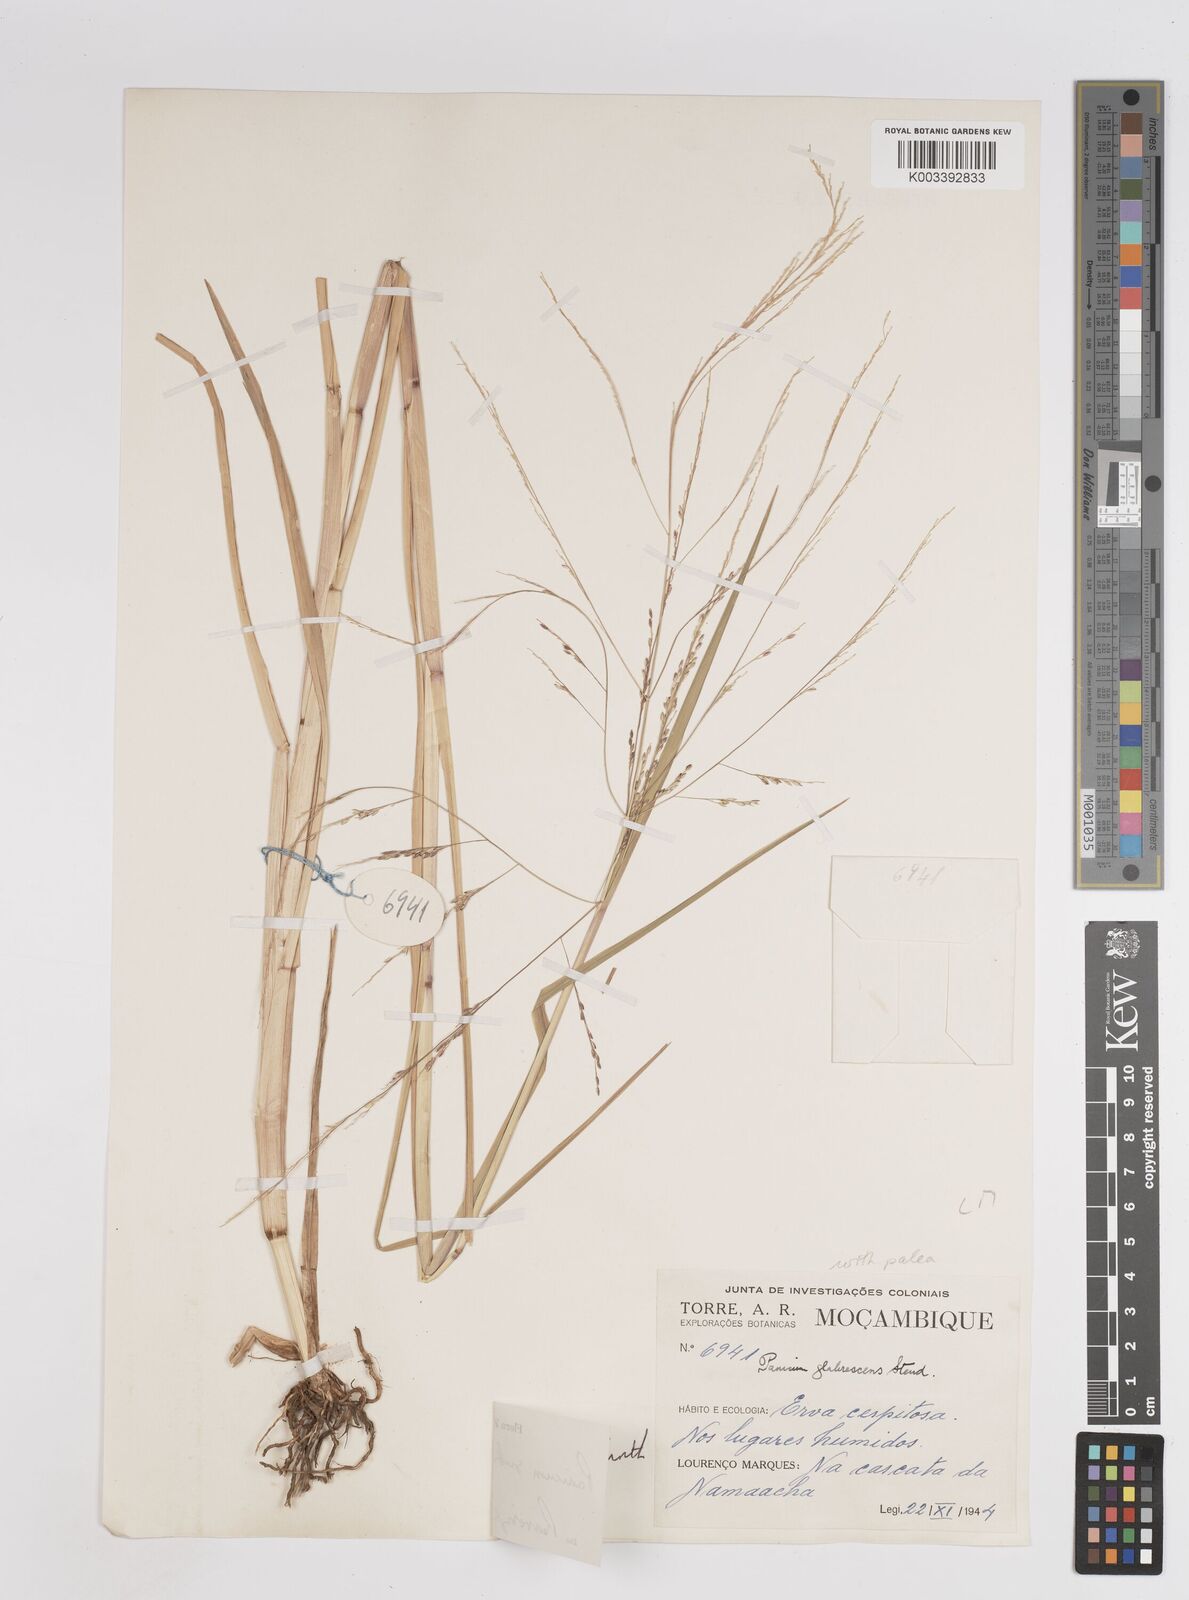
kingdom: Plantae
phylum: Tracheophyta
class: Liliopsida
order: Poales
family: Poaceae
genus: Panicum
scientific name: Panicum subalbidum
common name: Elbow buffalo grass
